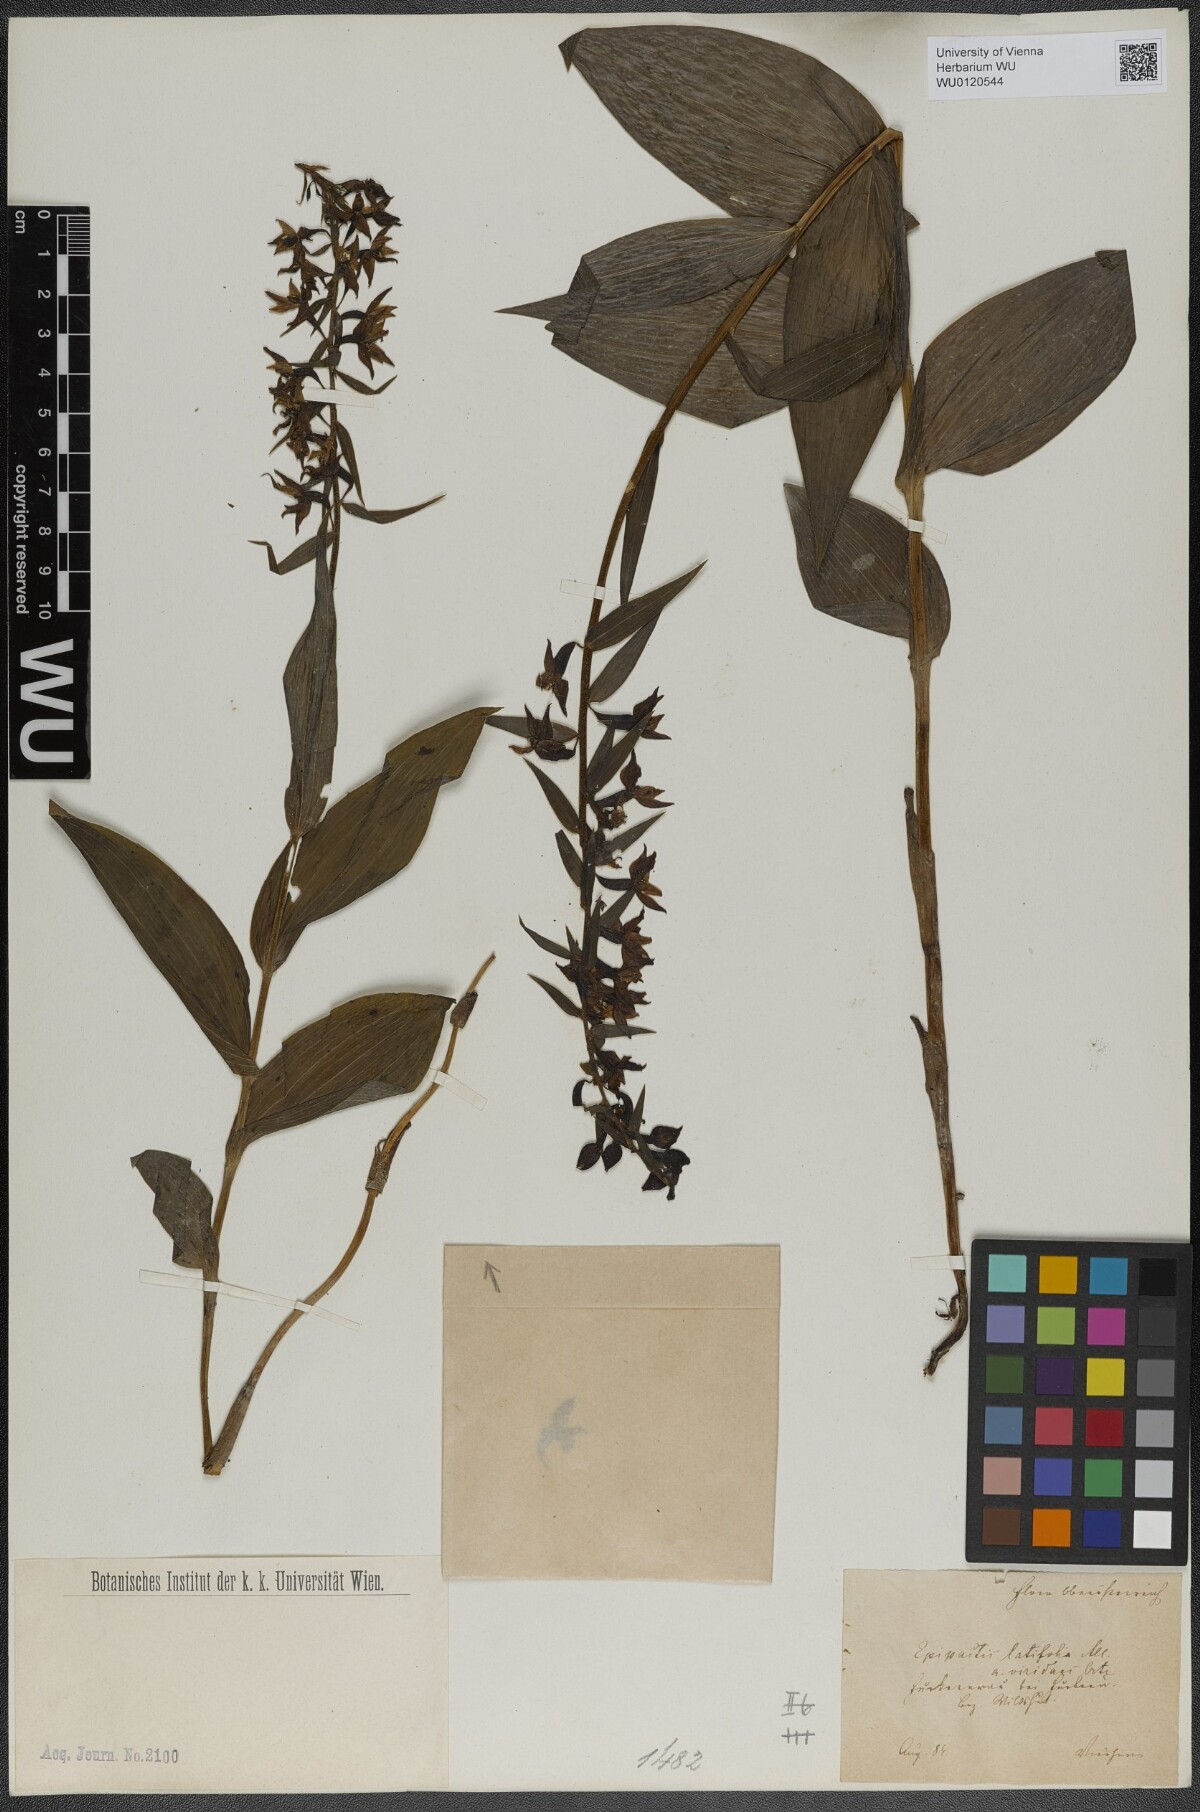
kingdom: Plantae
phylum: Tracheophyta
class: Liliopsida
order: Asparagales
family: Orchidaceae
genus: Epipactis
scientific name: Epipactis atrorubens
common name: Dark-red helleborine
